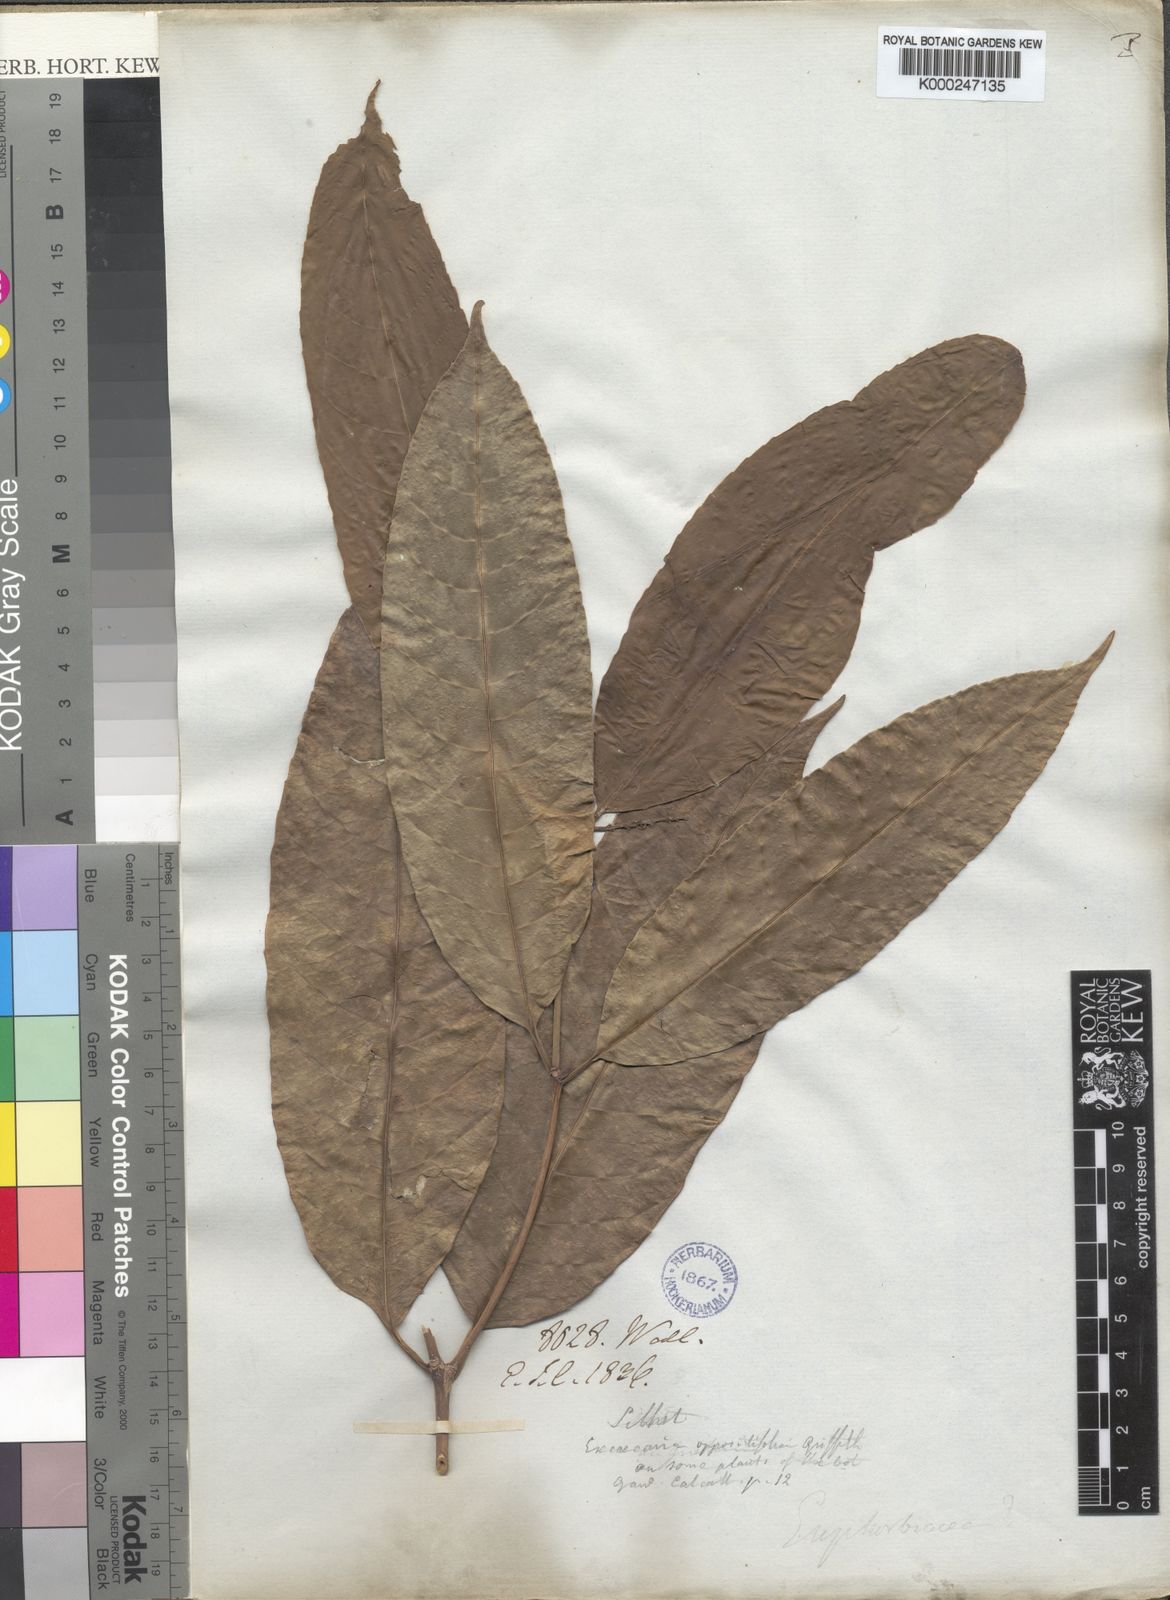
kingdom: Plantae
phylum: Tracheophyta
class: Magnoliopsida
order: Malpighiales
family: Euphorbiaceae
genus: Excoecaria
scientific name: Excoecaria oppositifolia
